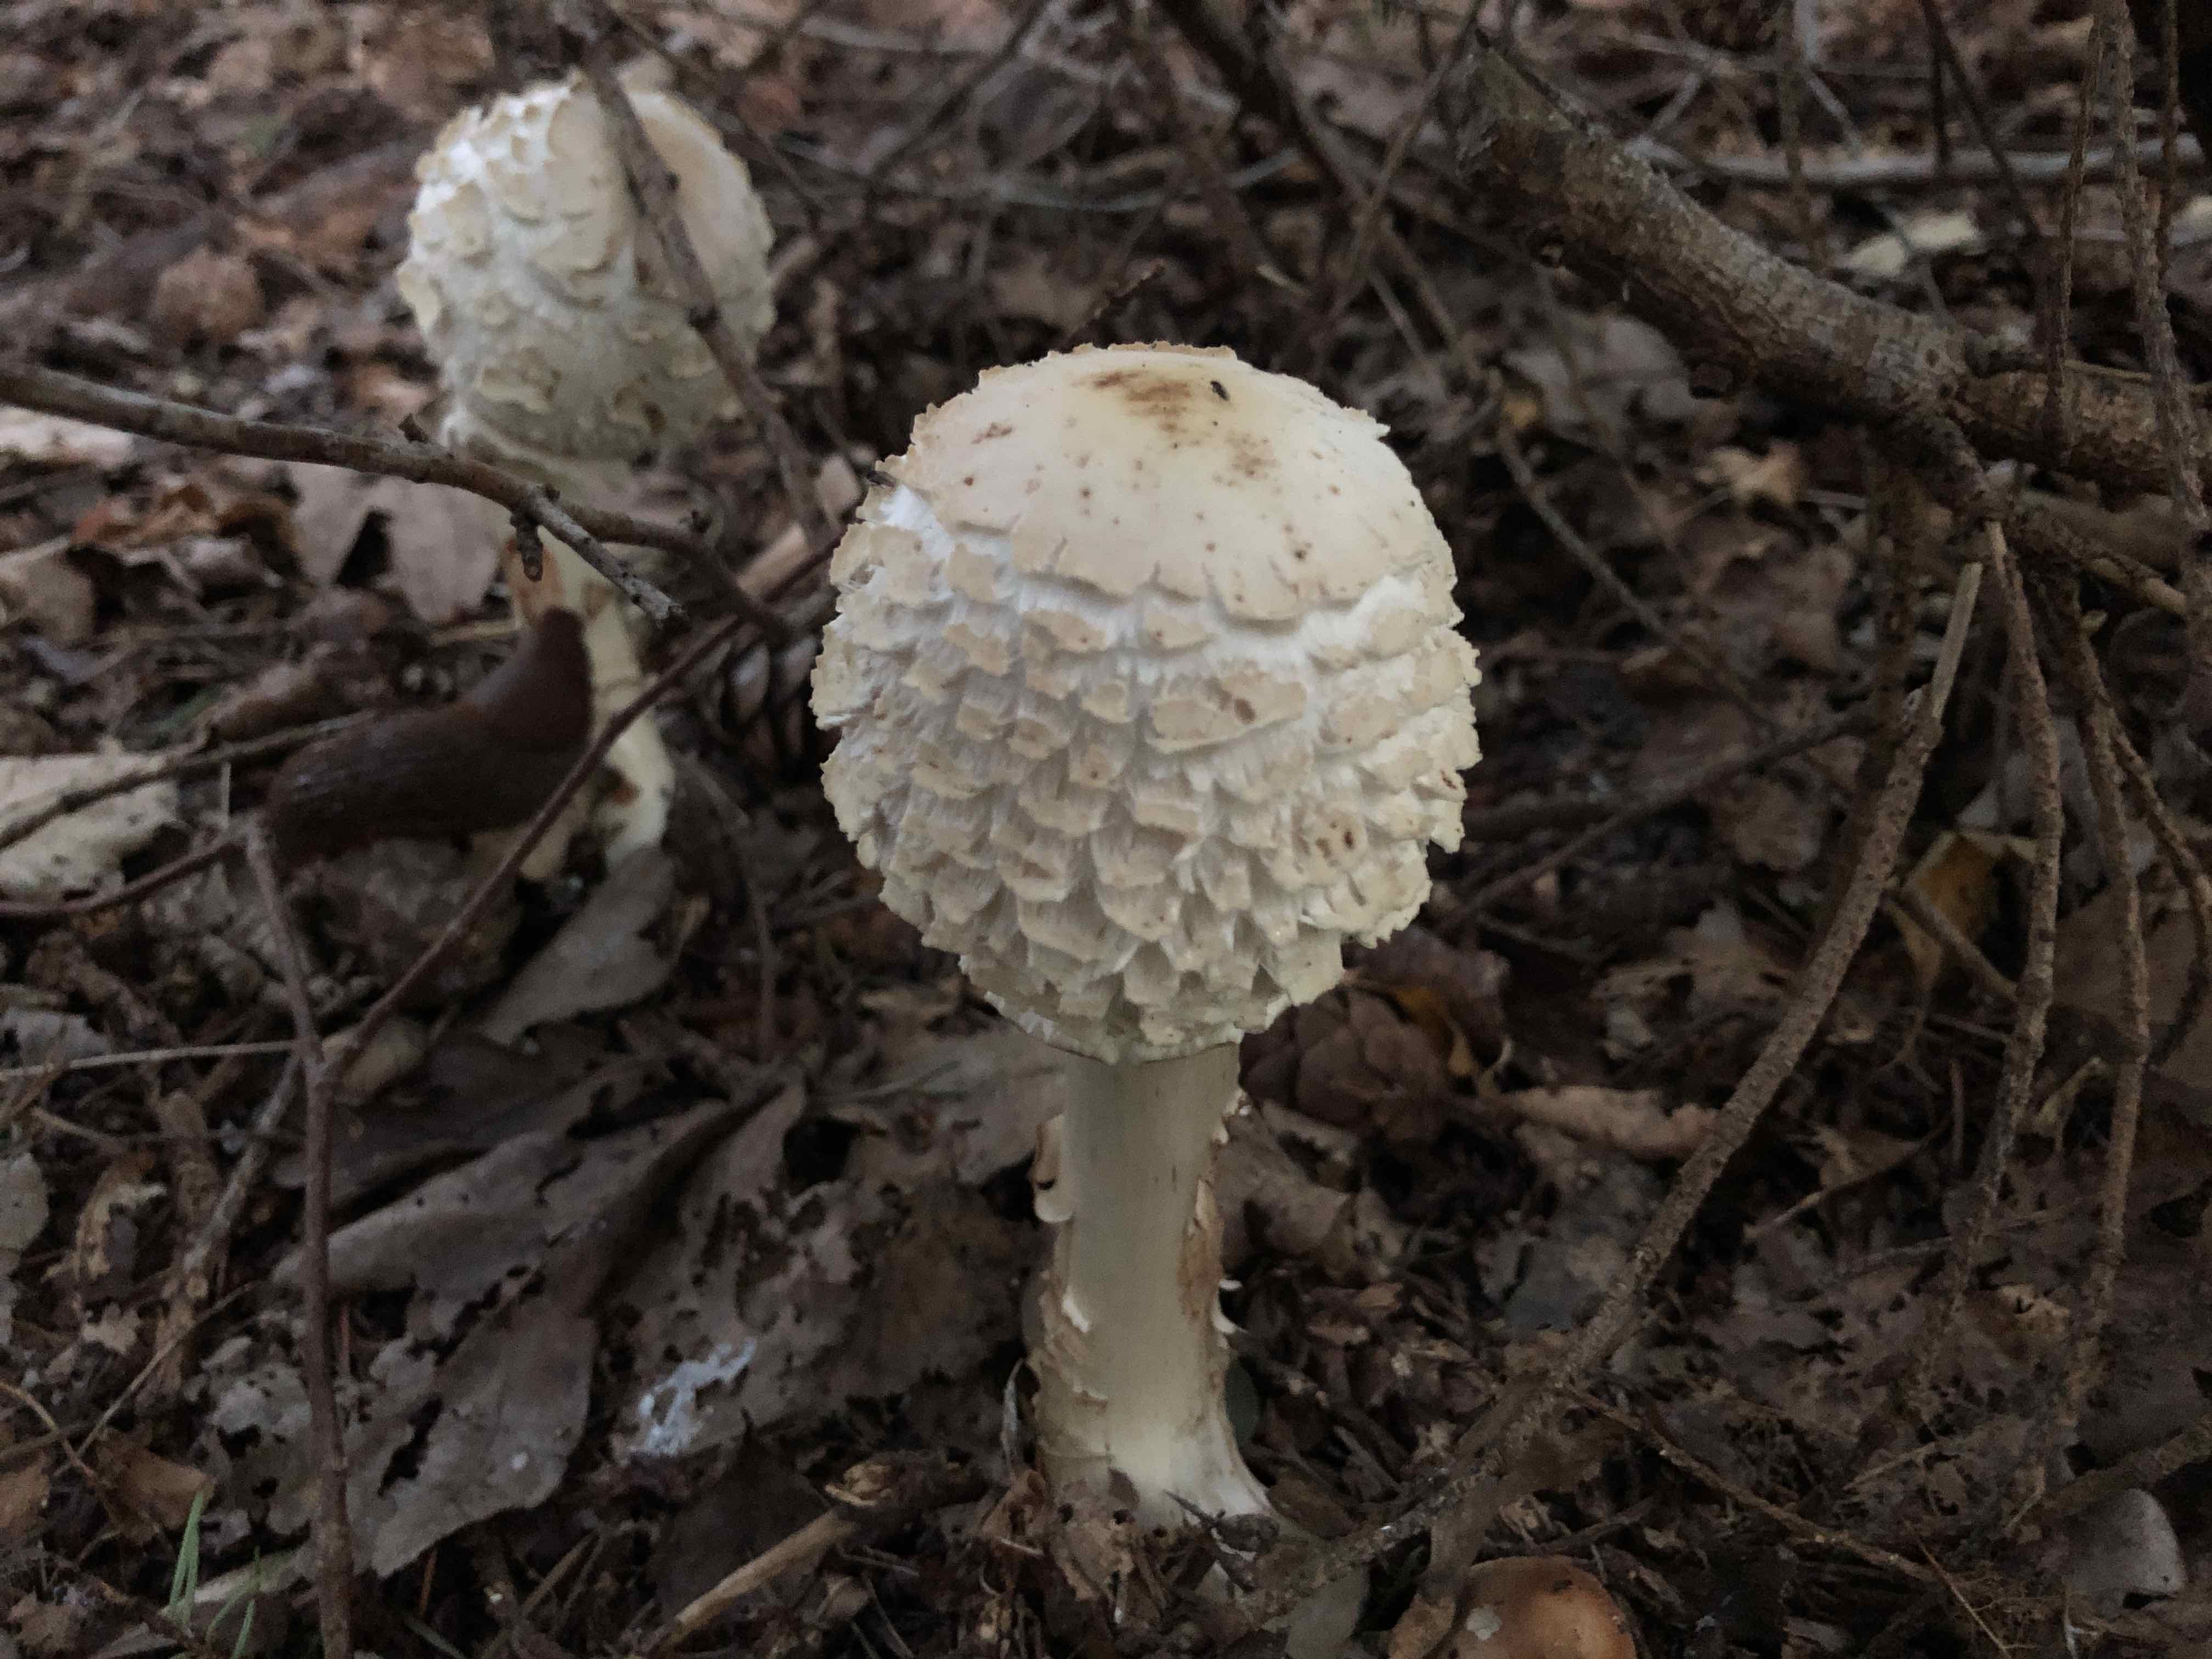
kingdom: Fungi
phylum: Basidiomycota
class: Agaricomycetes
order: Agaricales
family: Agaricaceae
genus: Chlorophyllum
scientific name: Chlorophyllum olivieri
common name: almindelig rabarberhat
